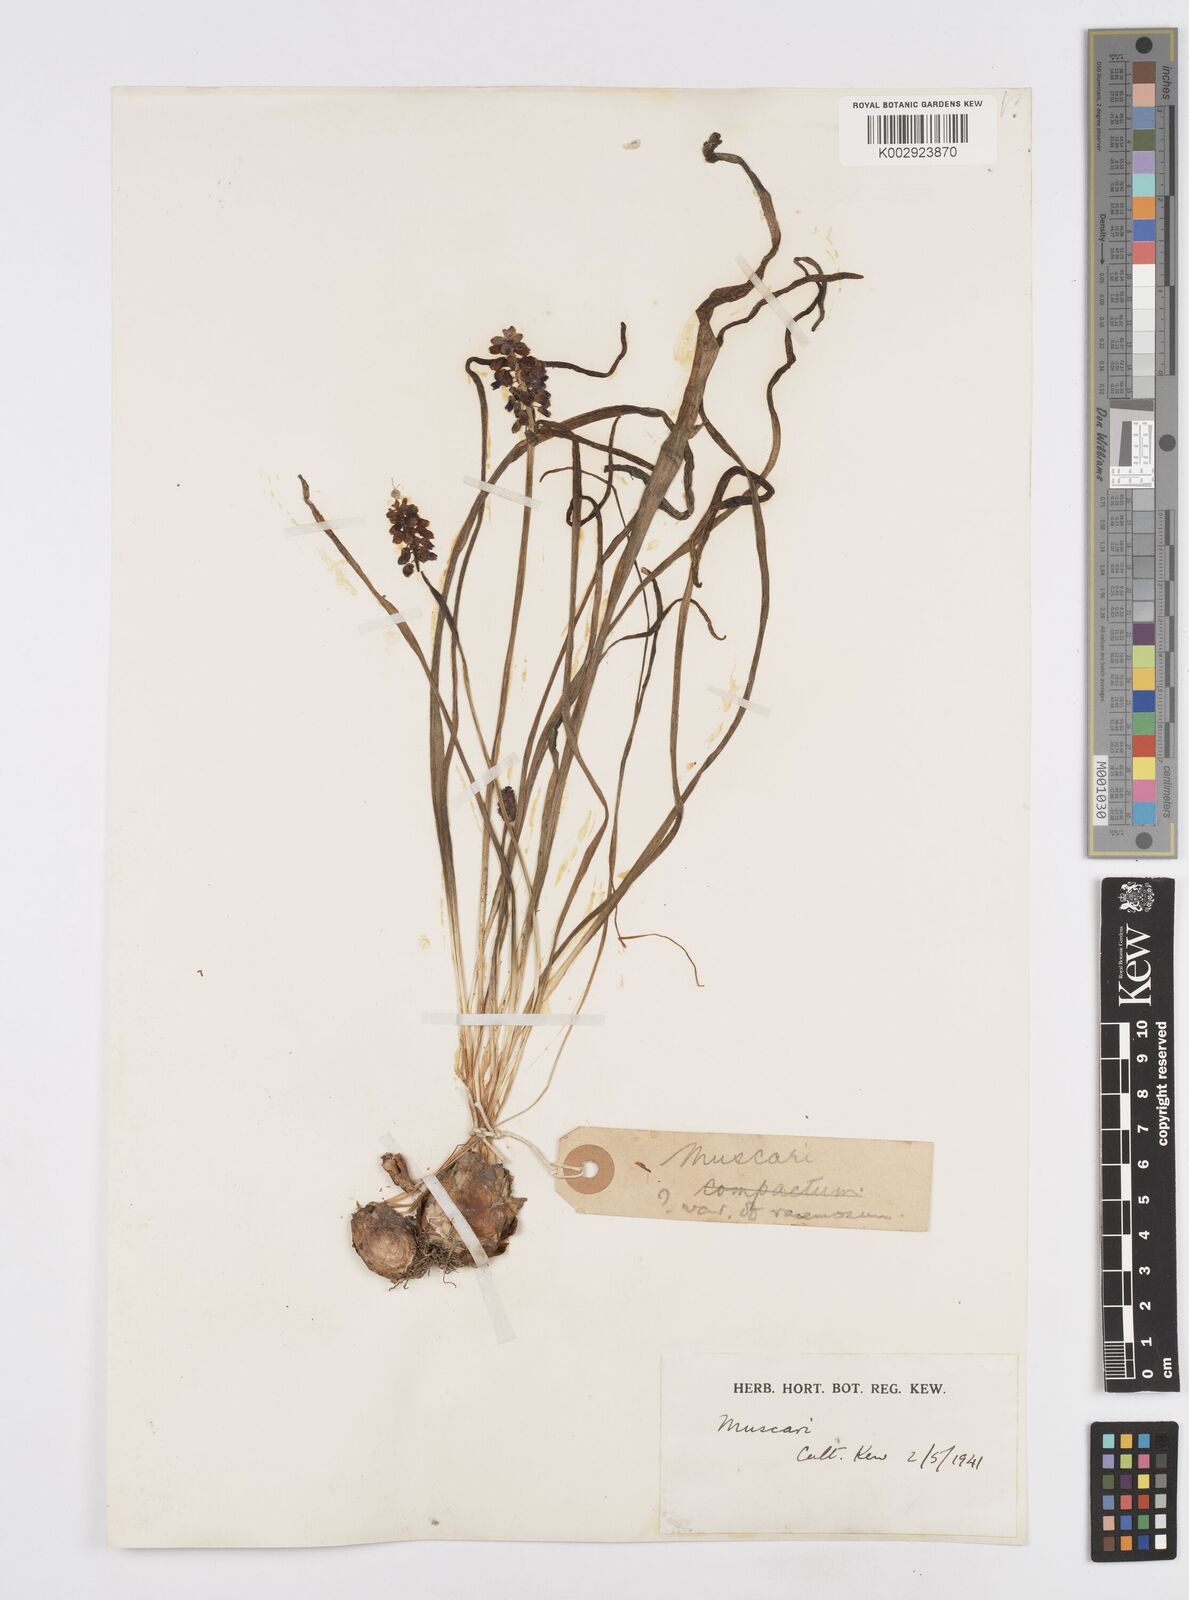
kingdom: Plantae
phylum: Tracheophyta
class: Liliopsida
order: Asparagales
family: Asparagaceae
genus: Muscarimia
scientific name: Muscarimia muscari
